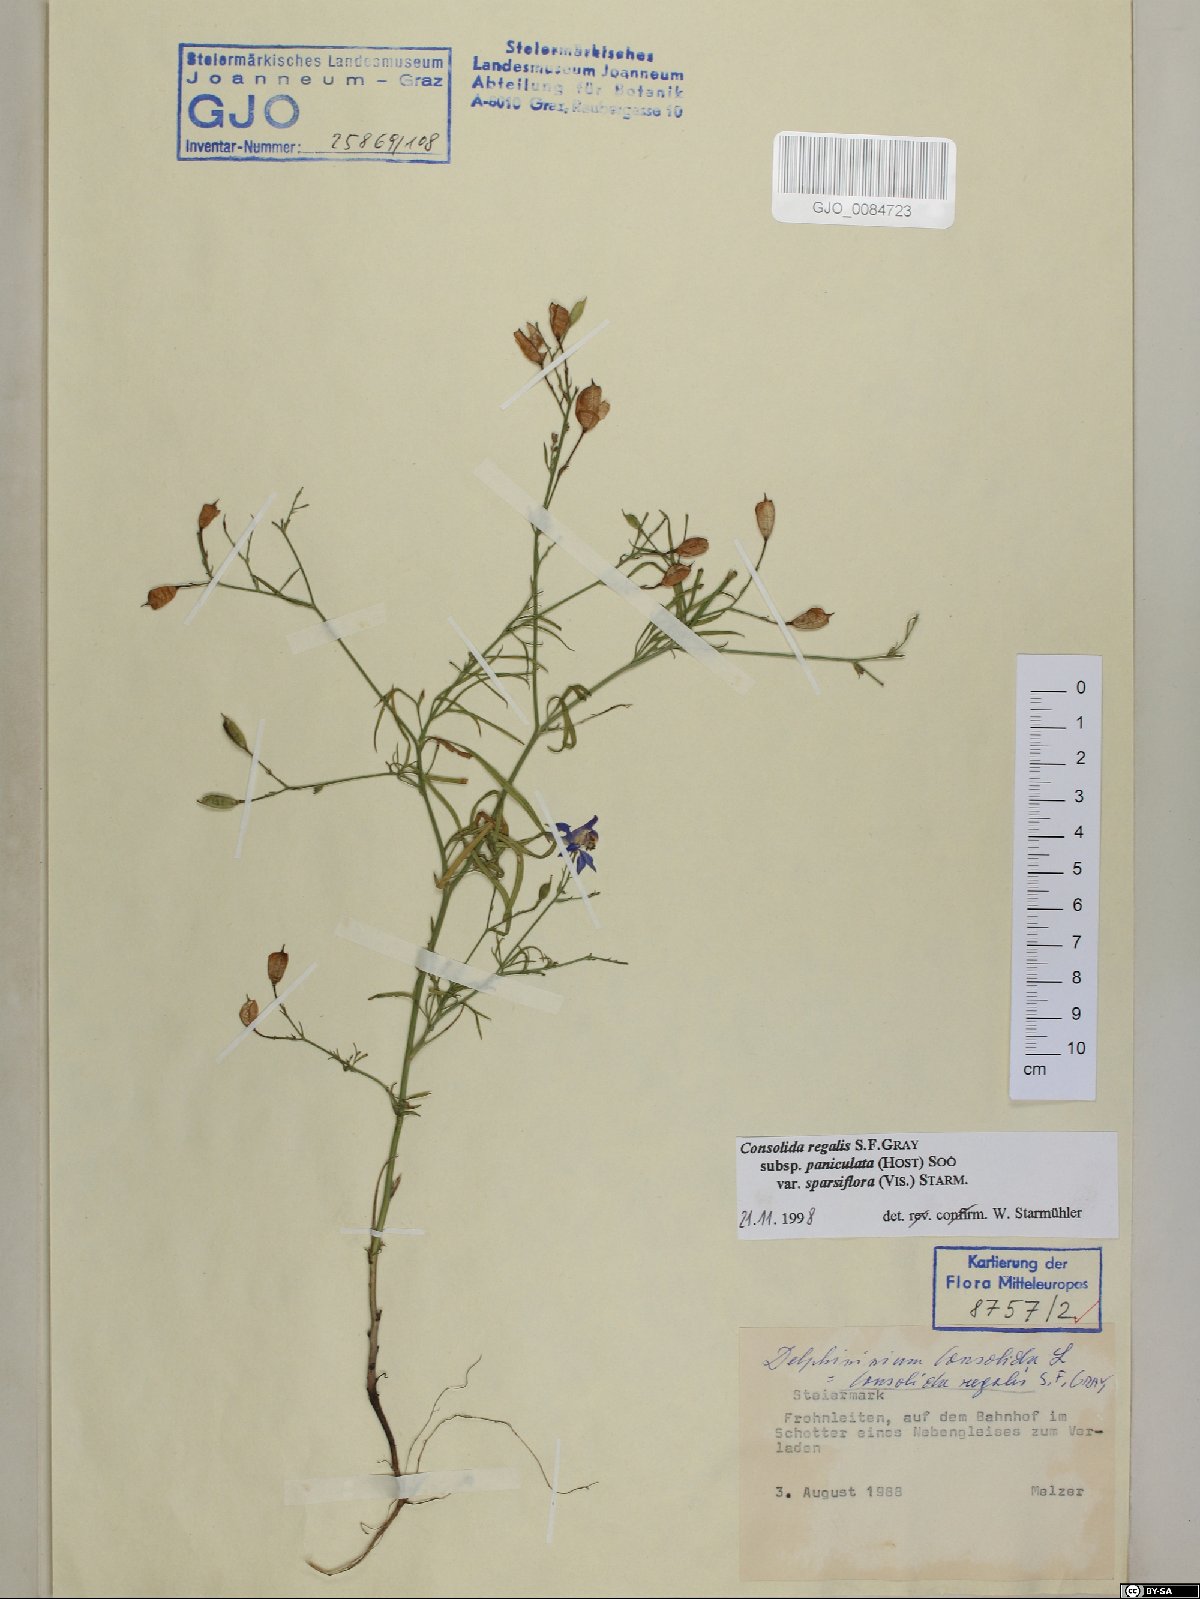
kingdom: Plantae
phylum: Tracheophyta
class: Magnoliopsida
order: Ranunculales
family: Ranunculaceae
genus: Delphinium
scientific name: Delphinium consolida
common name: Branching larkspur
